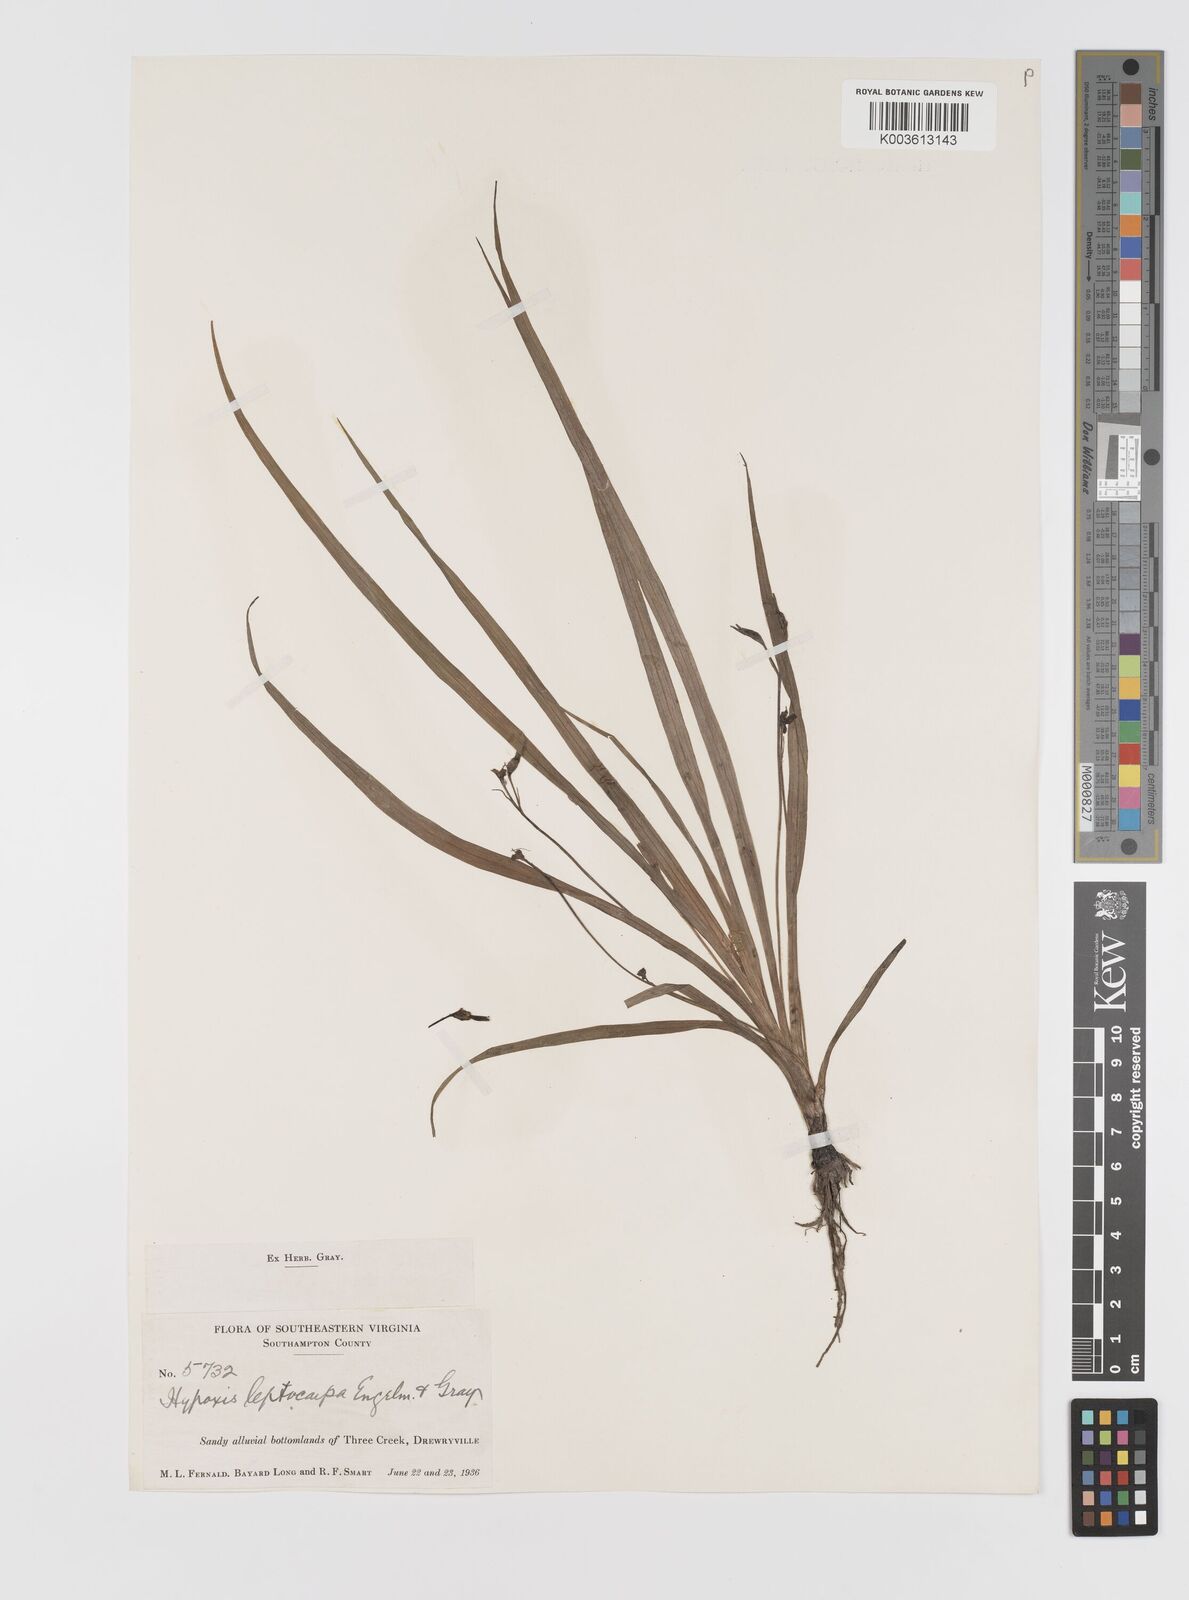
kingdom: Plantae
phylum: Tracheophyta
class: Liliopsida
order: Asparagales
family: Hypoxidaceae
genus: Hypoxis
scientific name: Hypoxis curtissii
